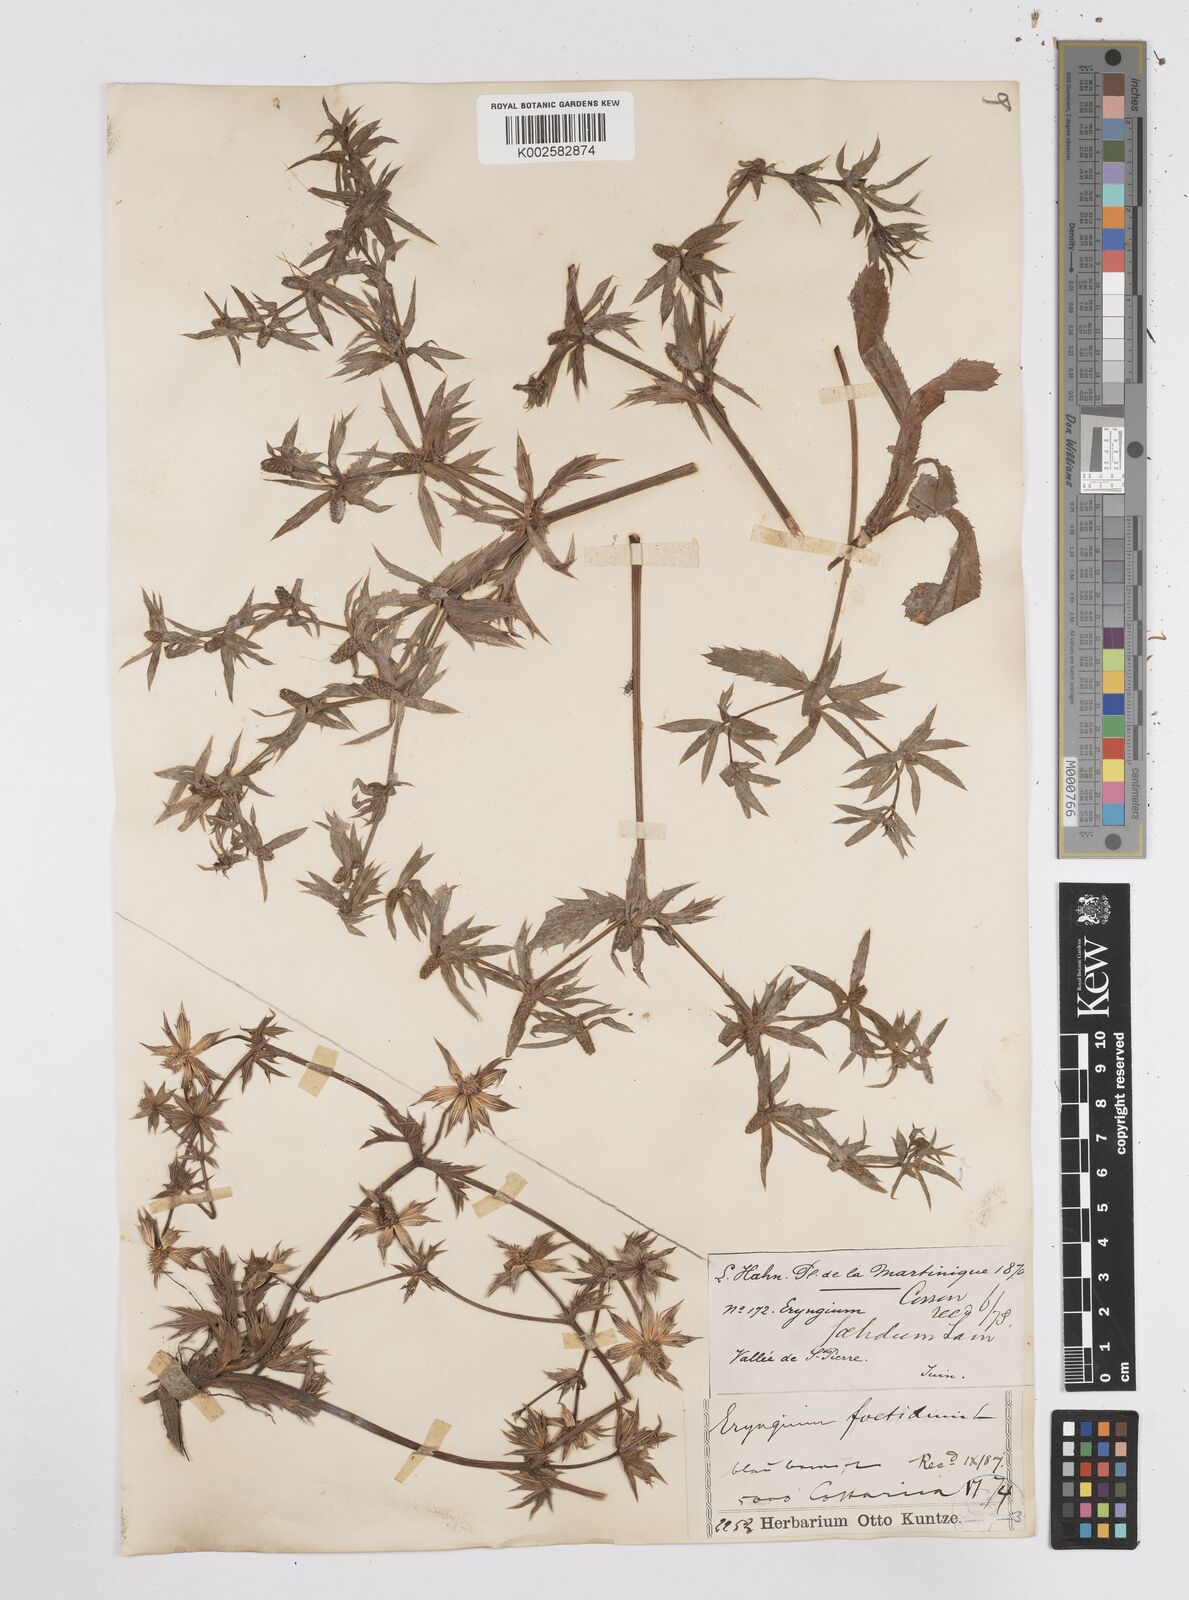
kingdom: Plantae
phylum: Tracheophyta
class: Magnoliopsida
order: Apiales
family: Apiaceae
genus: Eryngium
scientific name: Eryngium foetidum
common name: Fitweed
